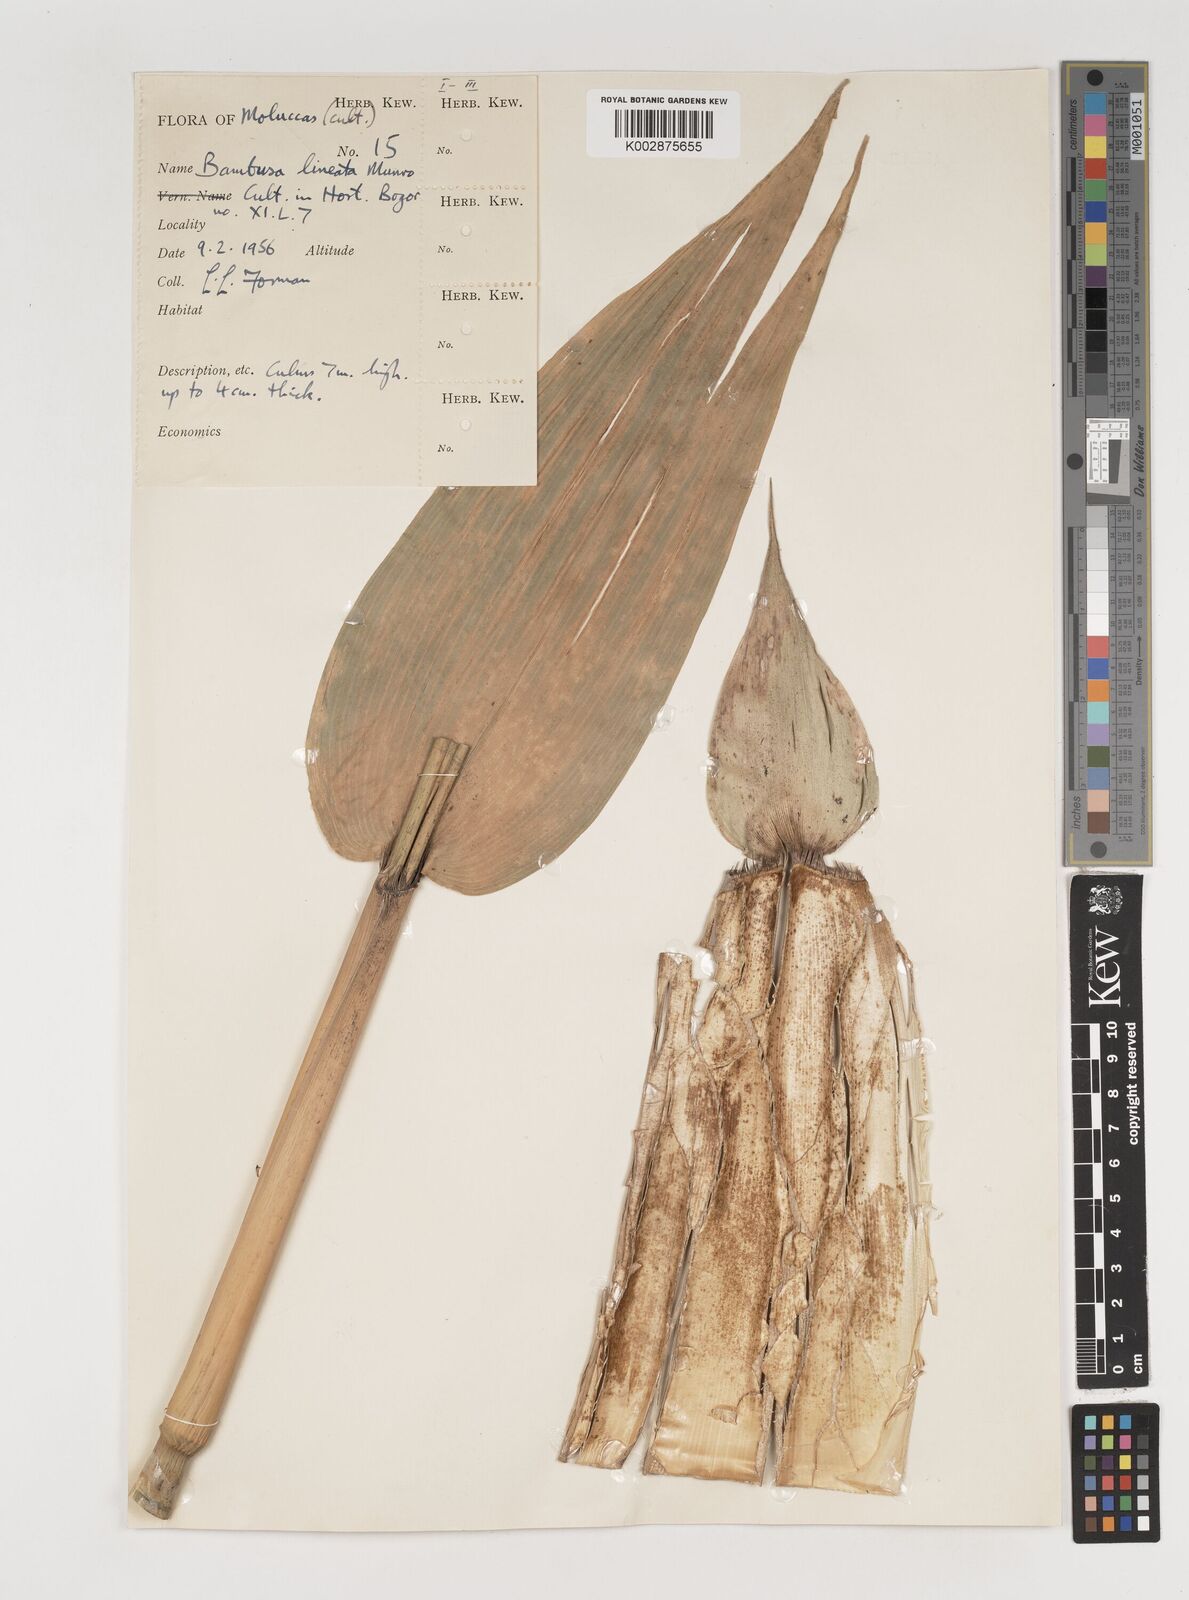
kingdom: Plantae
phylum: Tracheophyta
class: Liliopsida
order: Poales
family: Poaceae
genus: Neololeba
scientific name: Neololeba atra
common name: Cape bamboo
